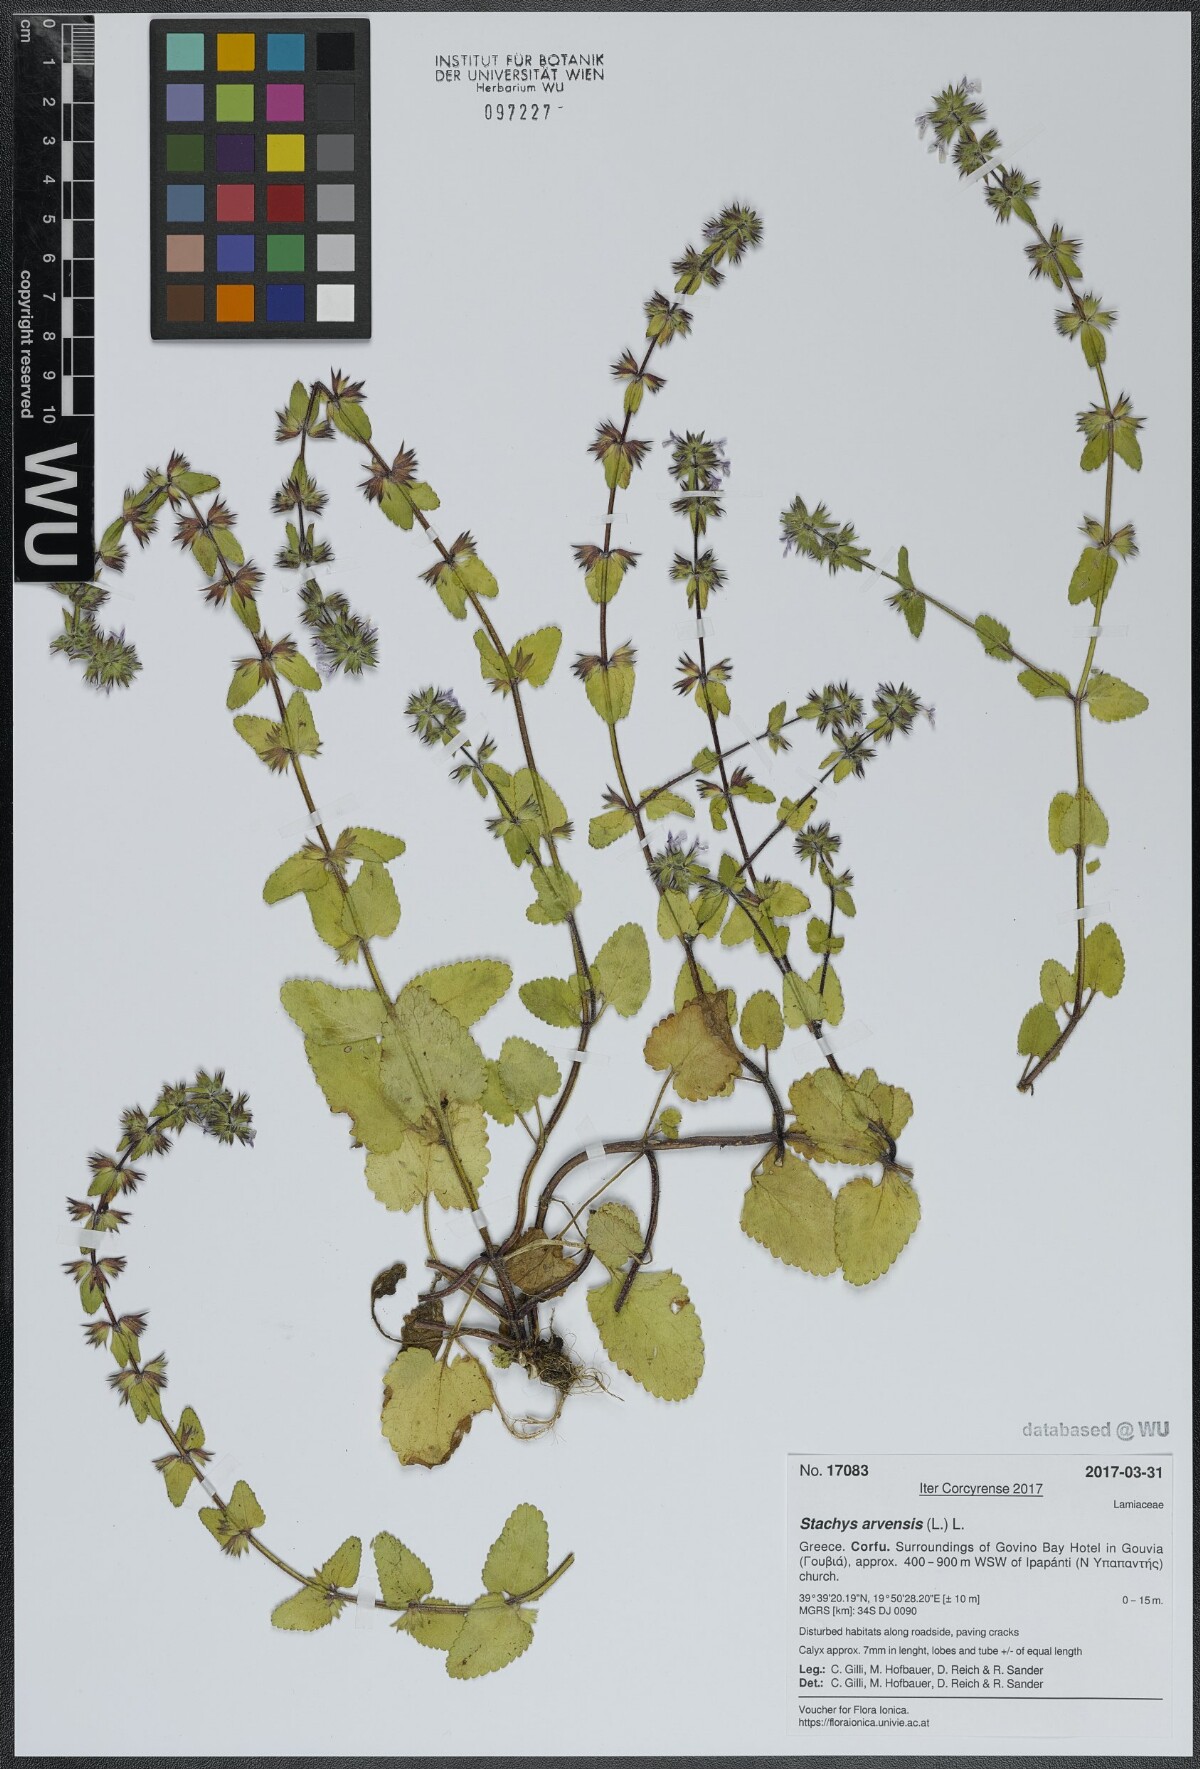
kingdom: Plantae
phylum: Tracheophyta
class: Magnoliopsida
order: Lamiales
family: Lamiaceae
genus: Stachys
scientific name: Stachys arvensis
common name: Field woundwort
